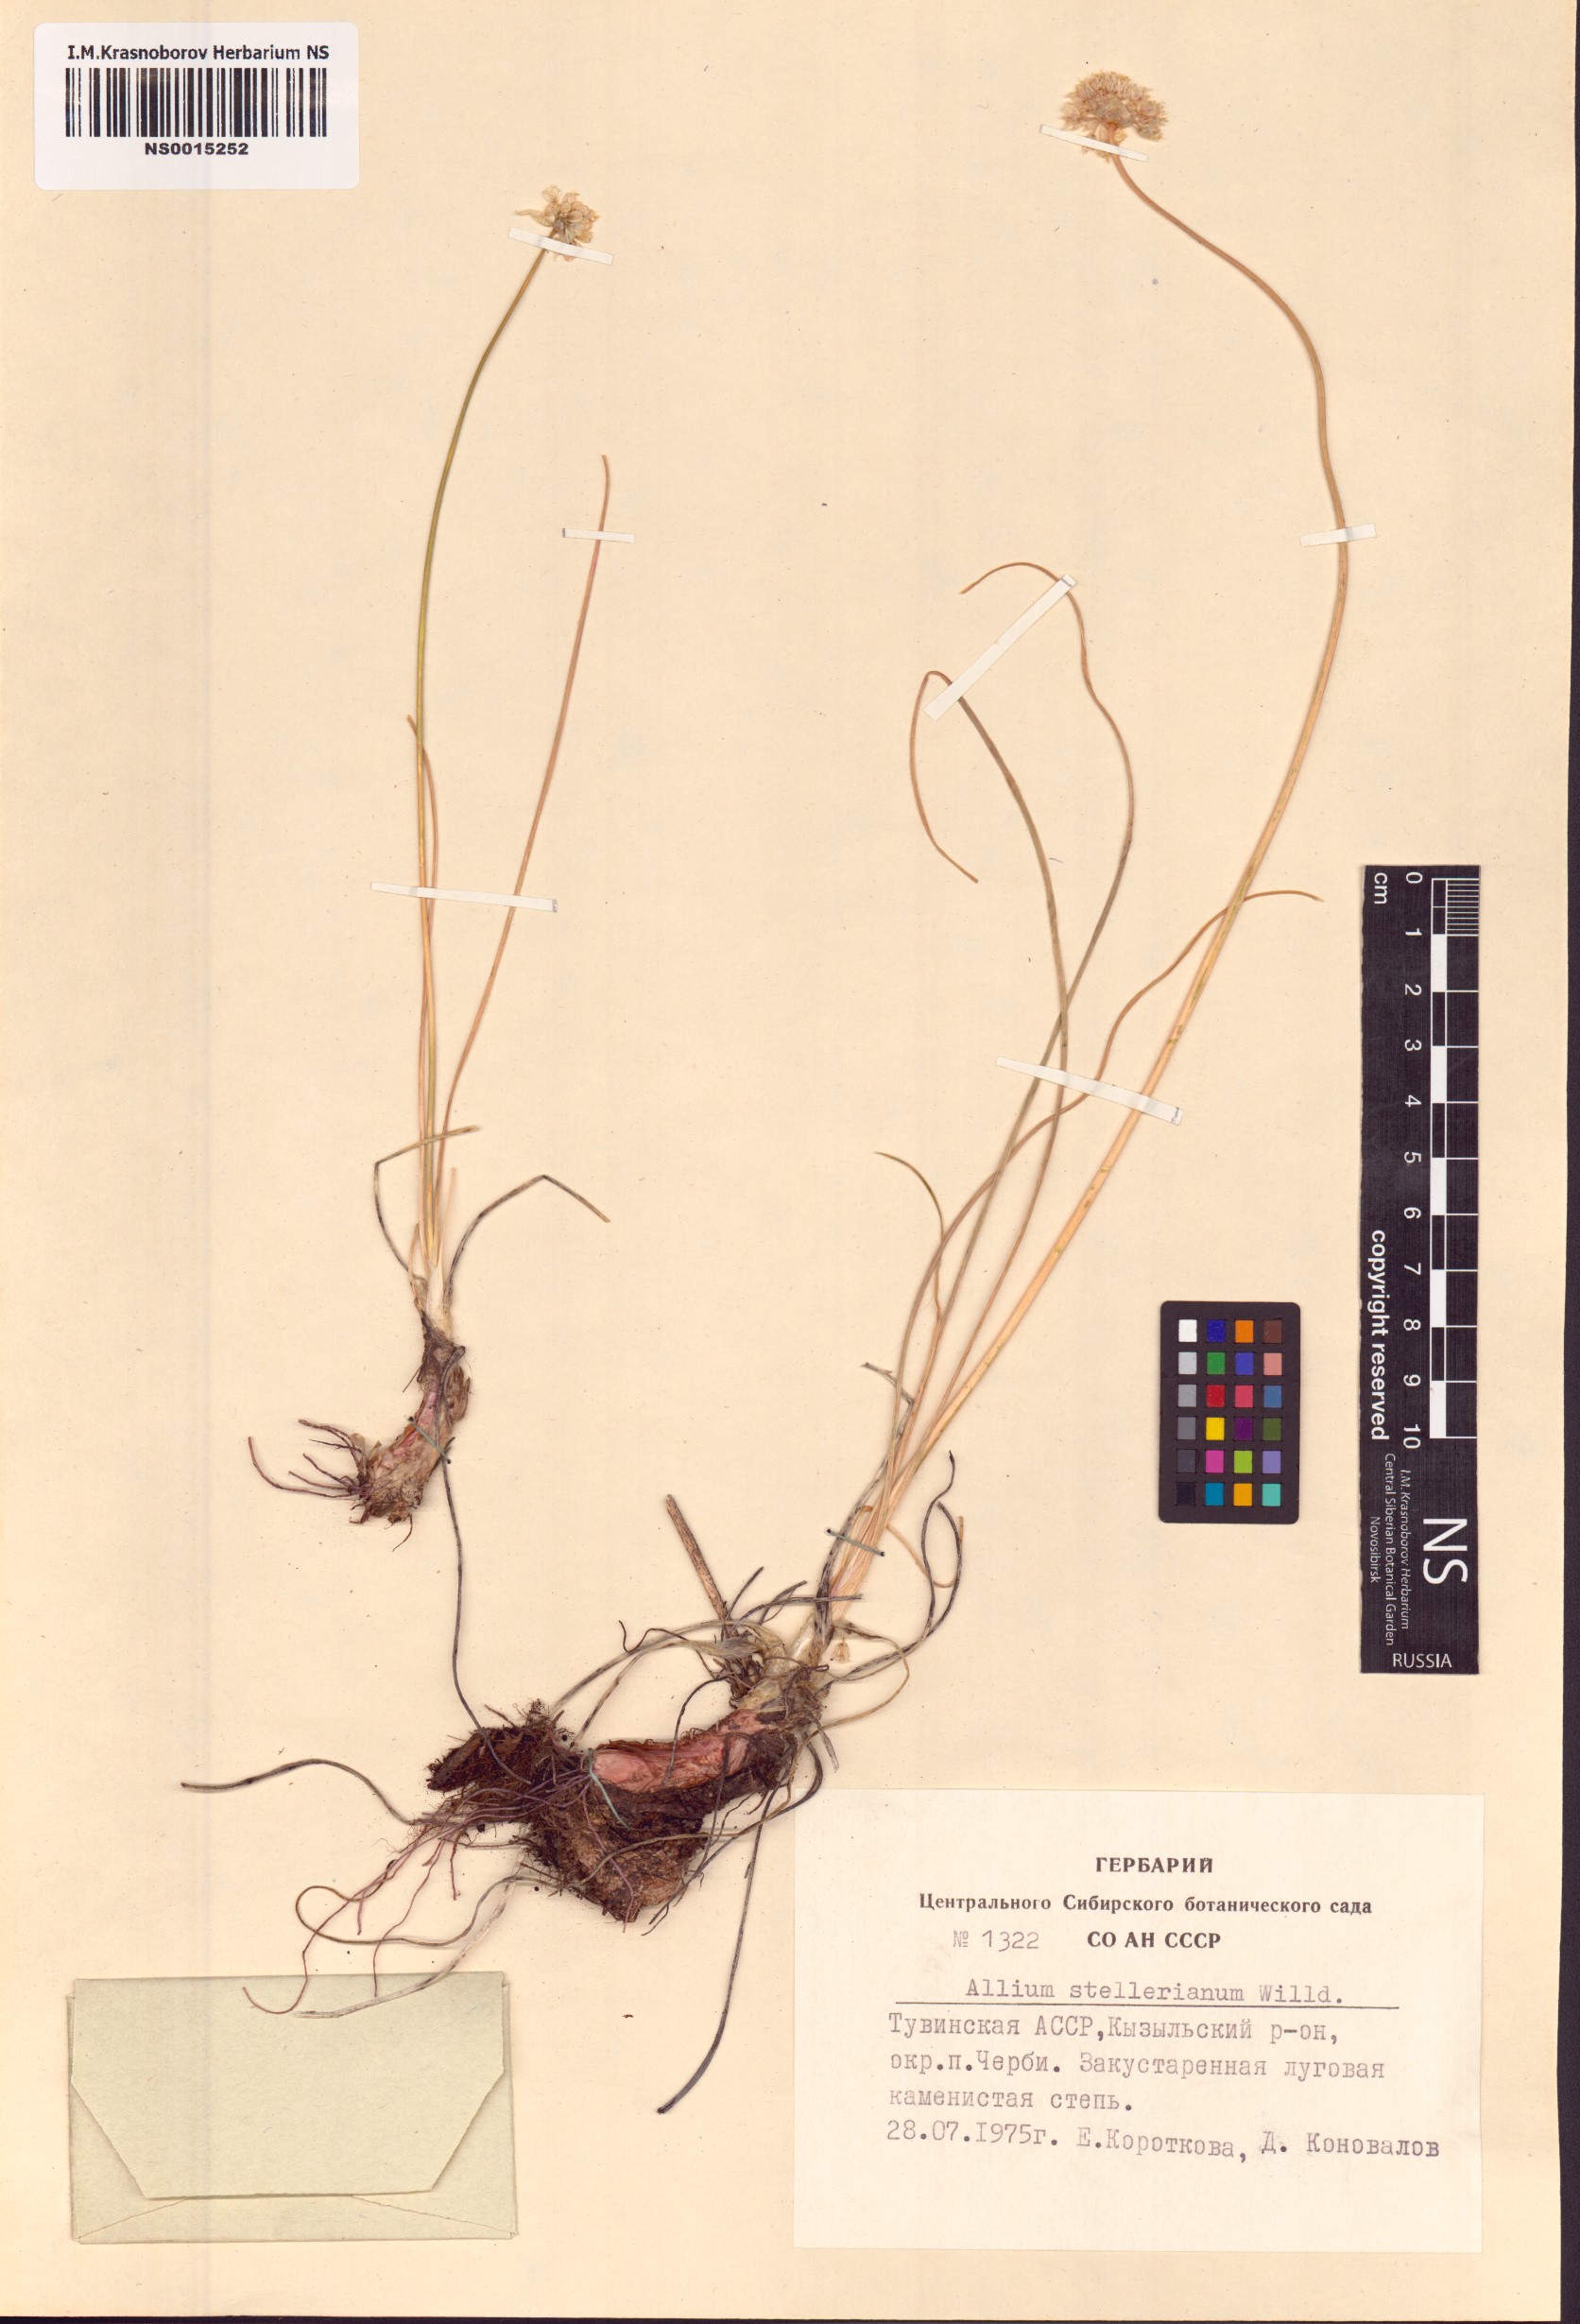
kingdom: Plantae
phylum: Tracheophyta
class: Liliopsida
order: Asparagales
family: Amaryllidaceae
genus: Allium
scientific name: Allium stellerianum
